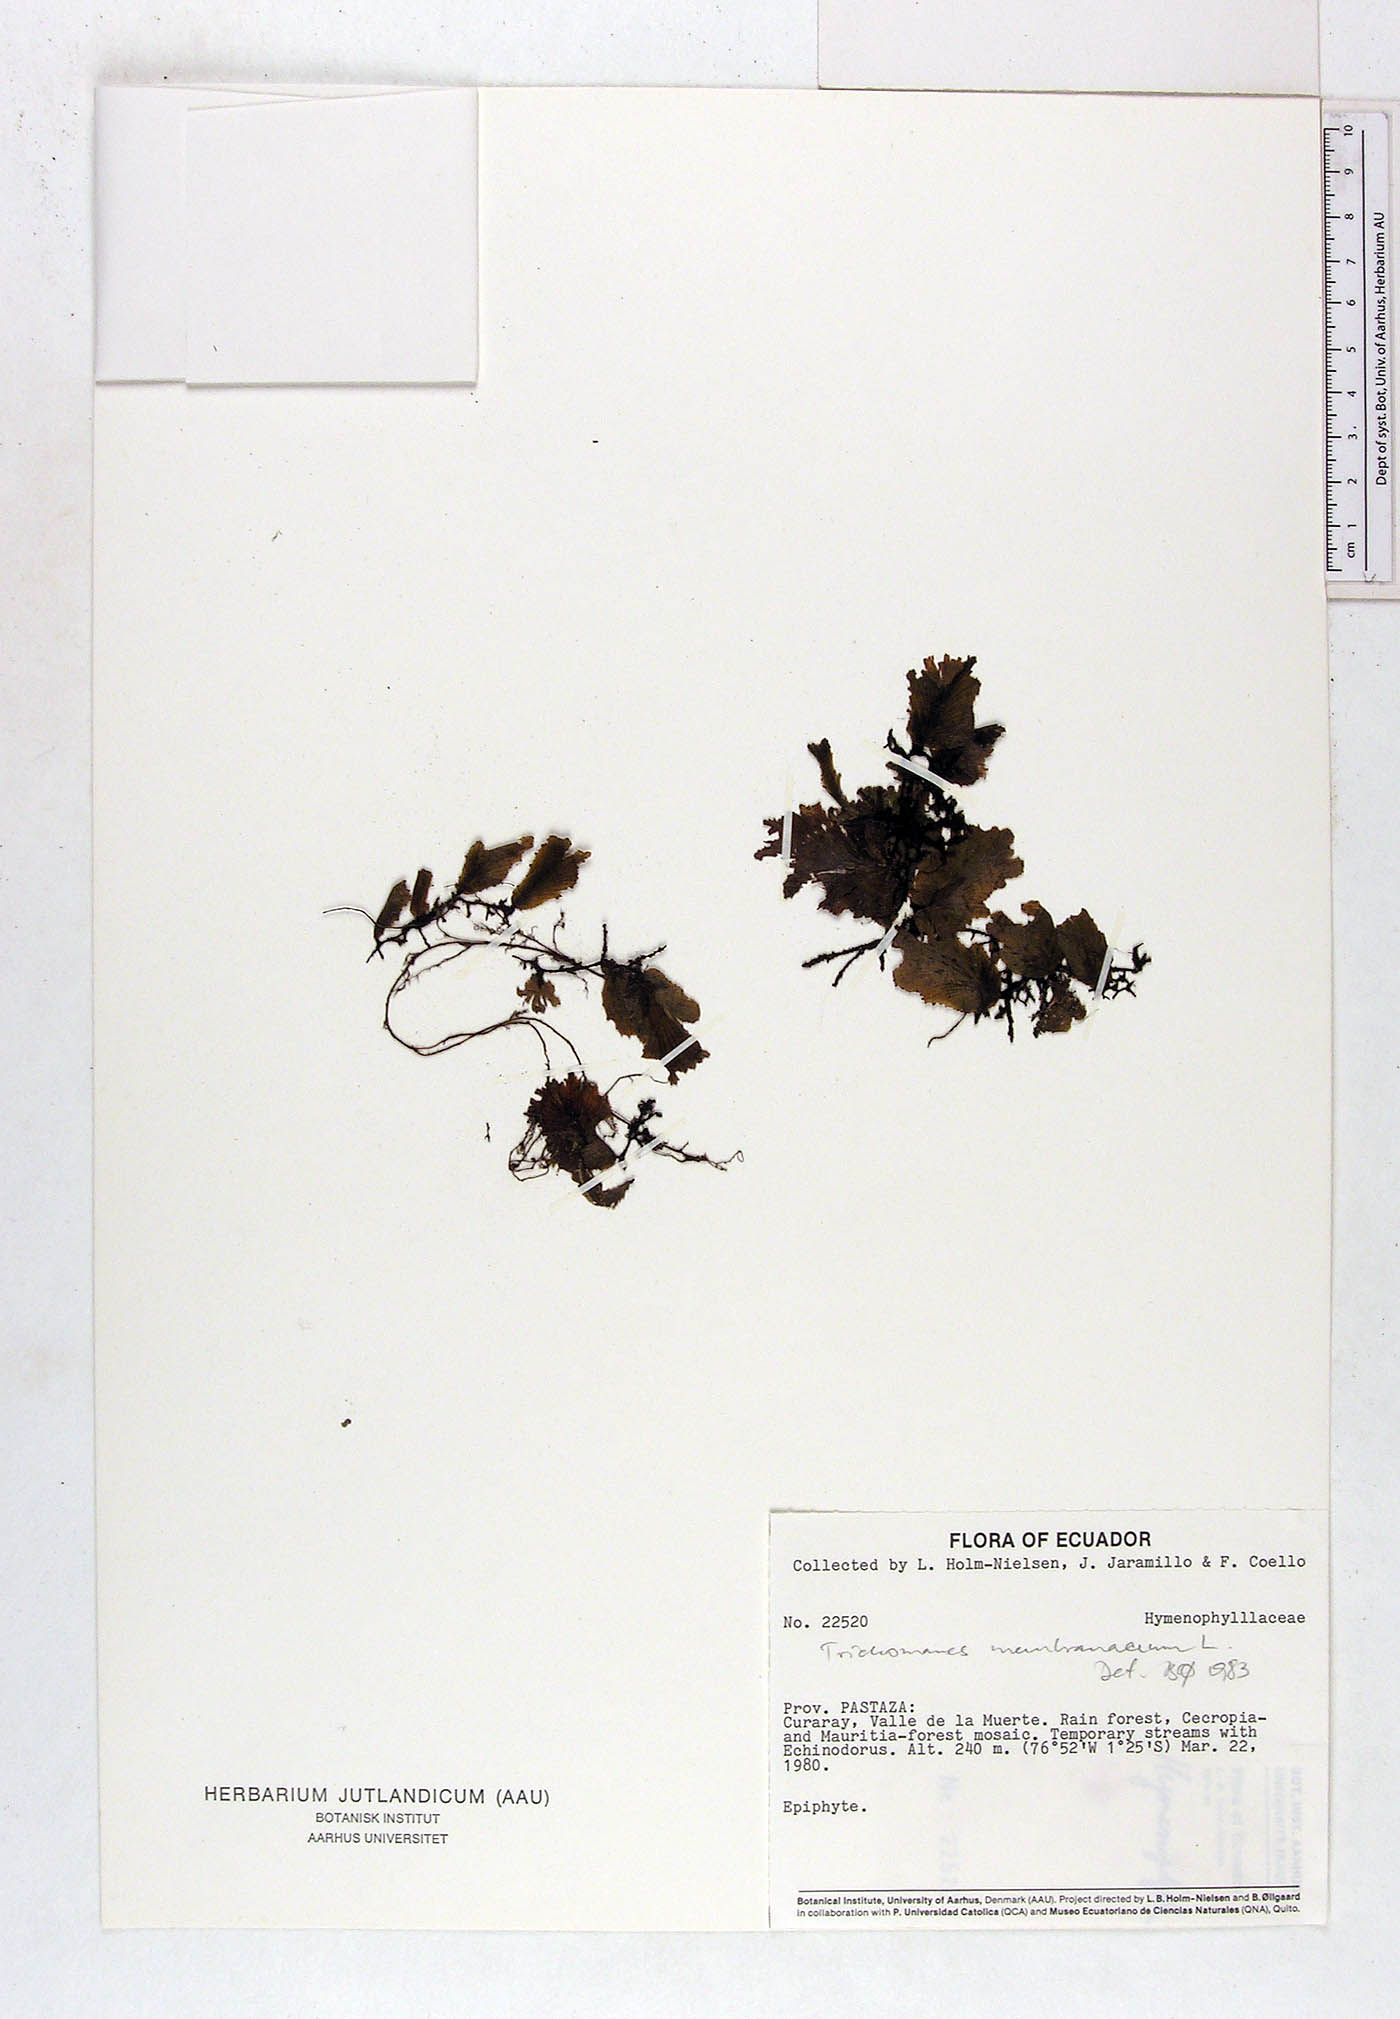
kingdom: Plantae
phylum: Tracheophyta
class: Polypodiopsida
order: Hymenophyllales
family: Hymenophyllaceae
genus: Didymoglossum
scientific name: Didymoglossum membranaceum
